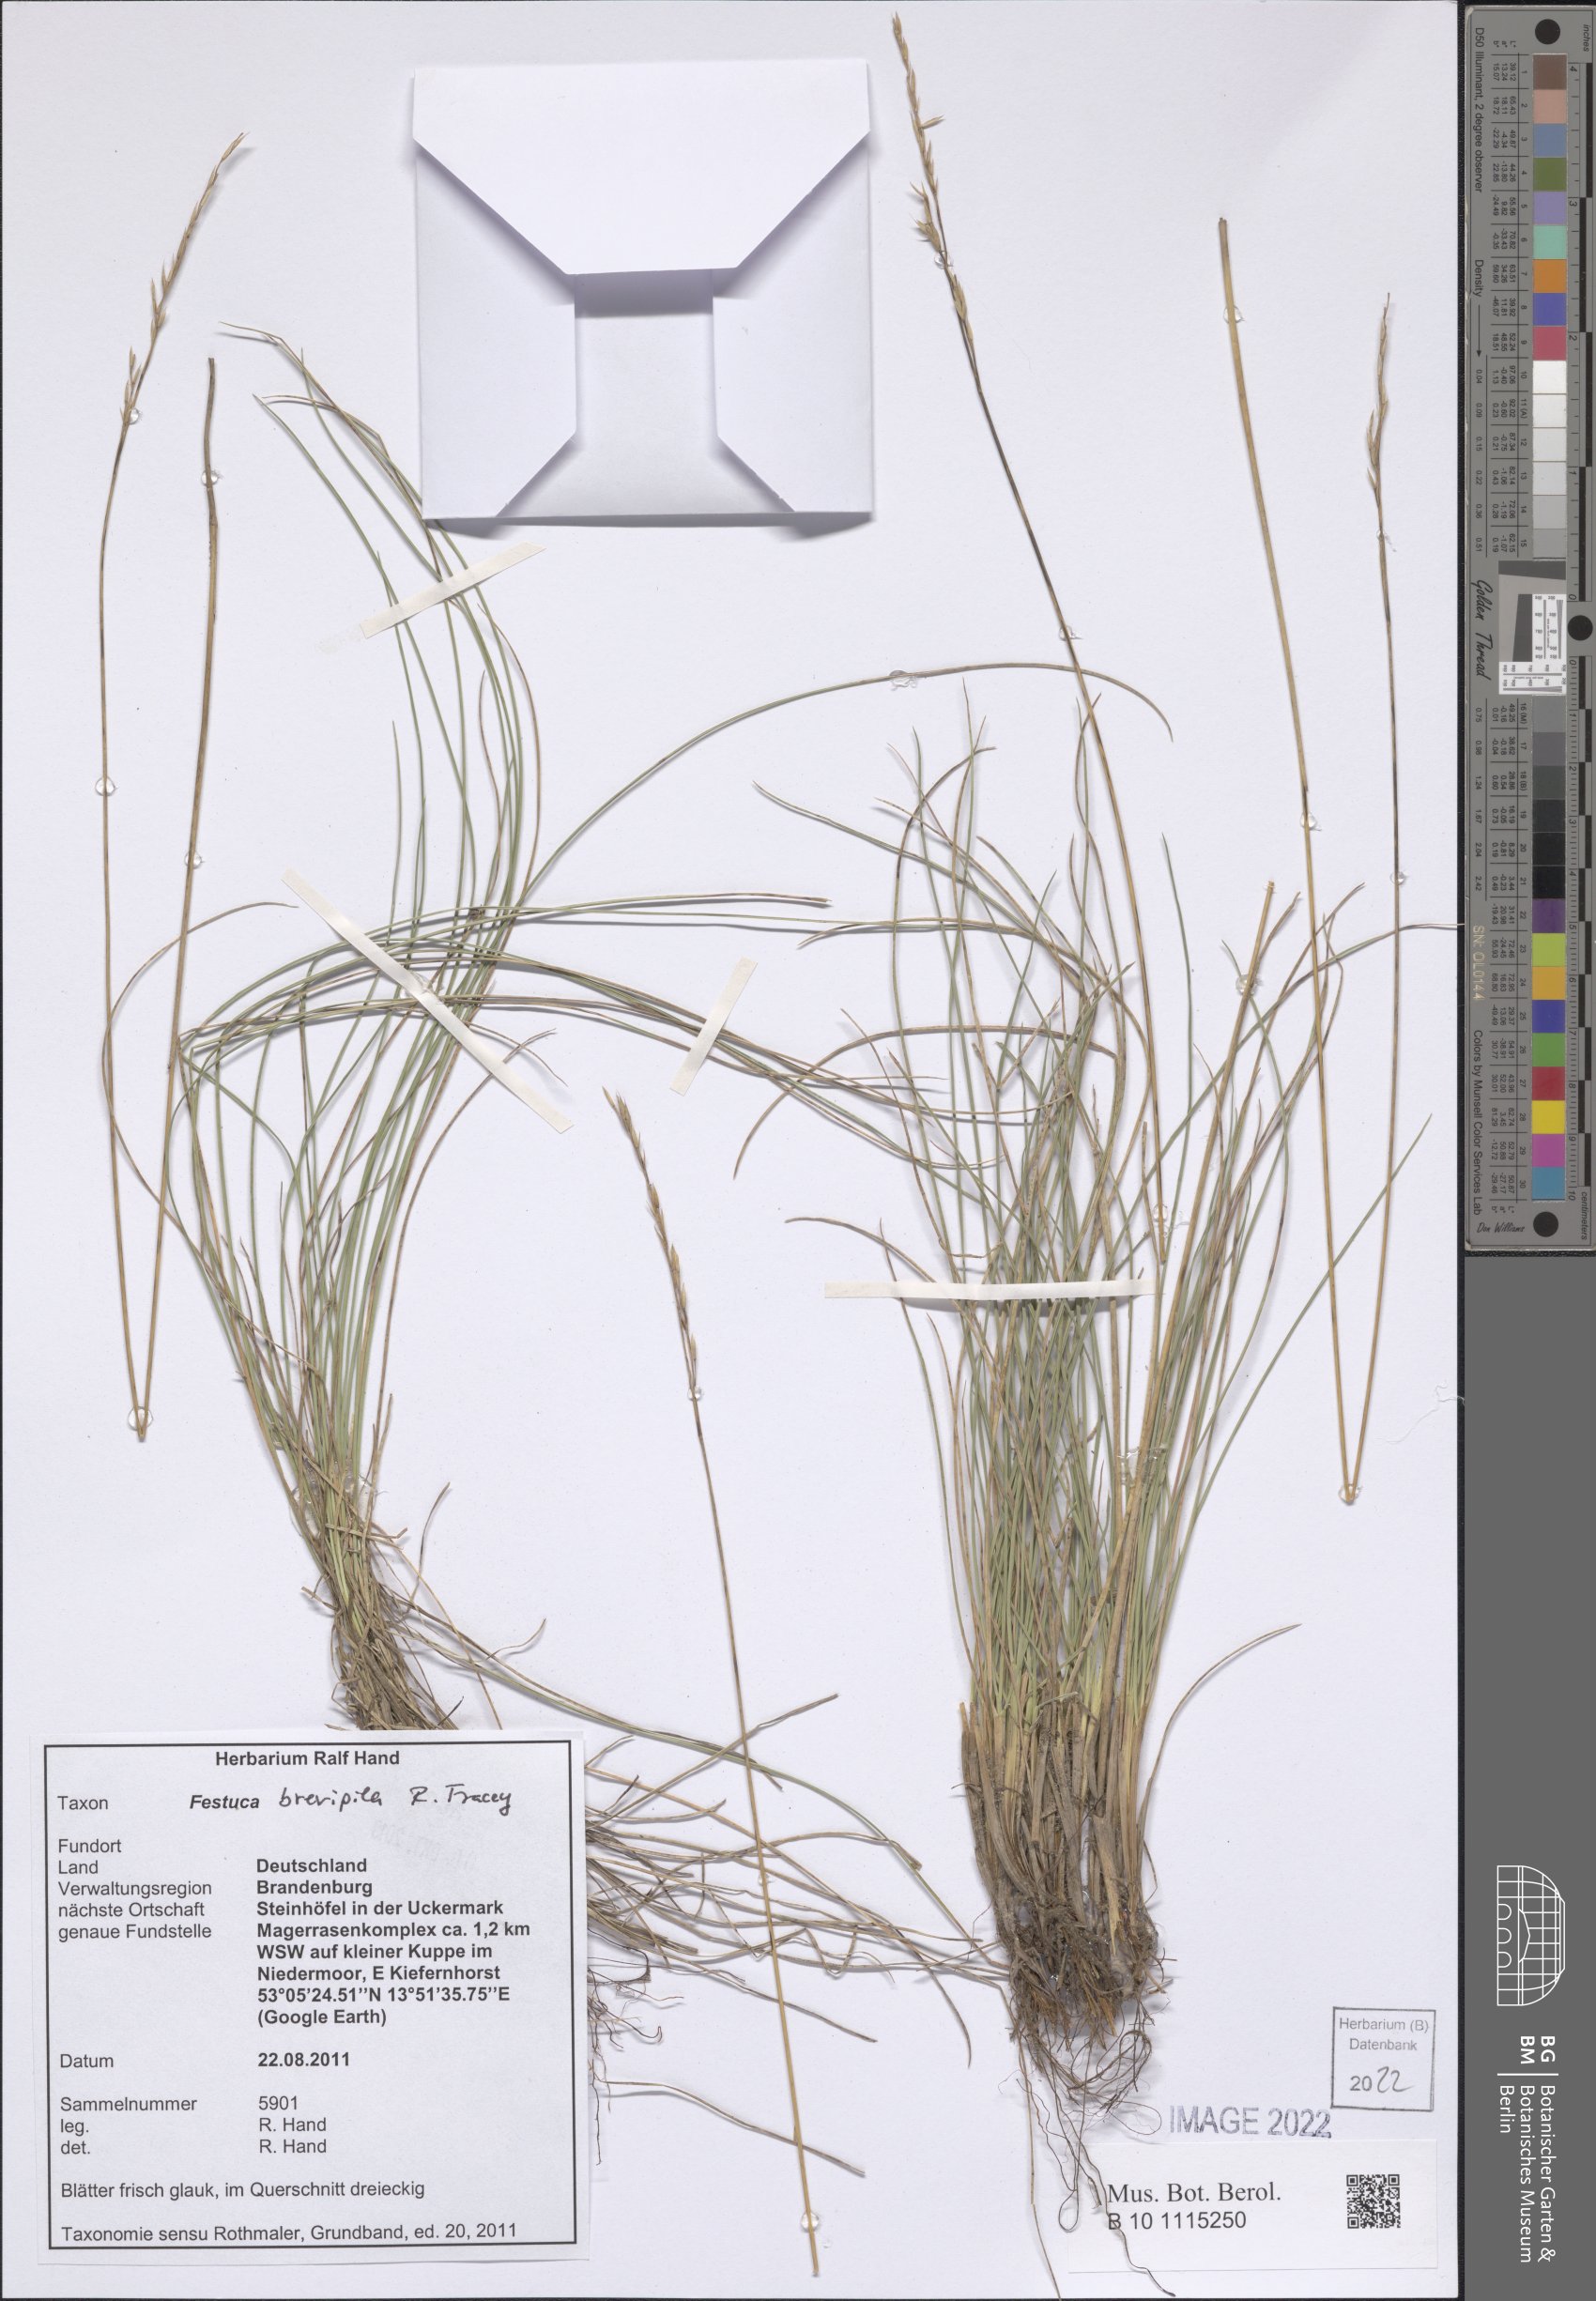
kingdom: Plantae
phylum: Tracheophyta
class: Liliopsida
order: Poales
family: Poaceae
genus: Festuca
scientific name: Festuca trachyphylla
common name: Hard fescue
